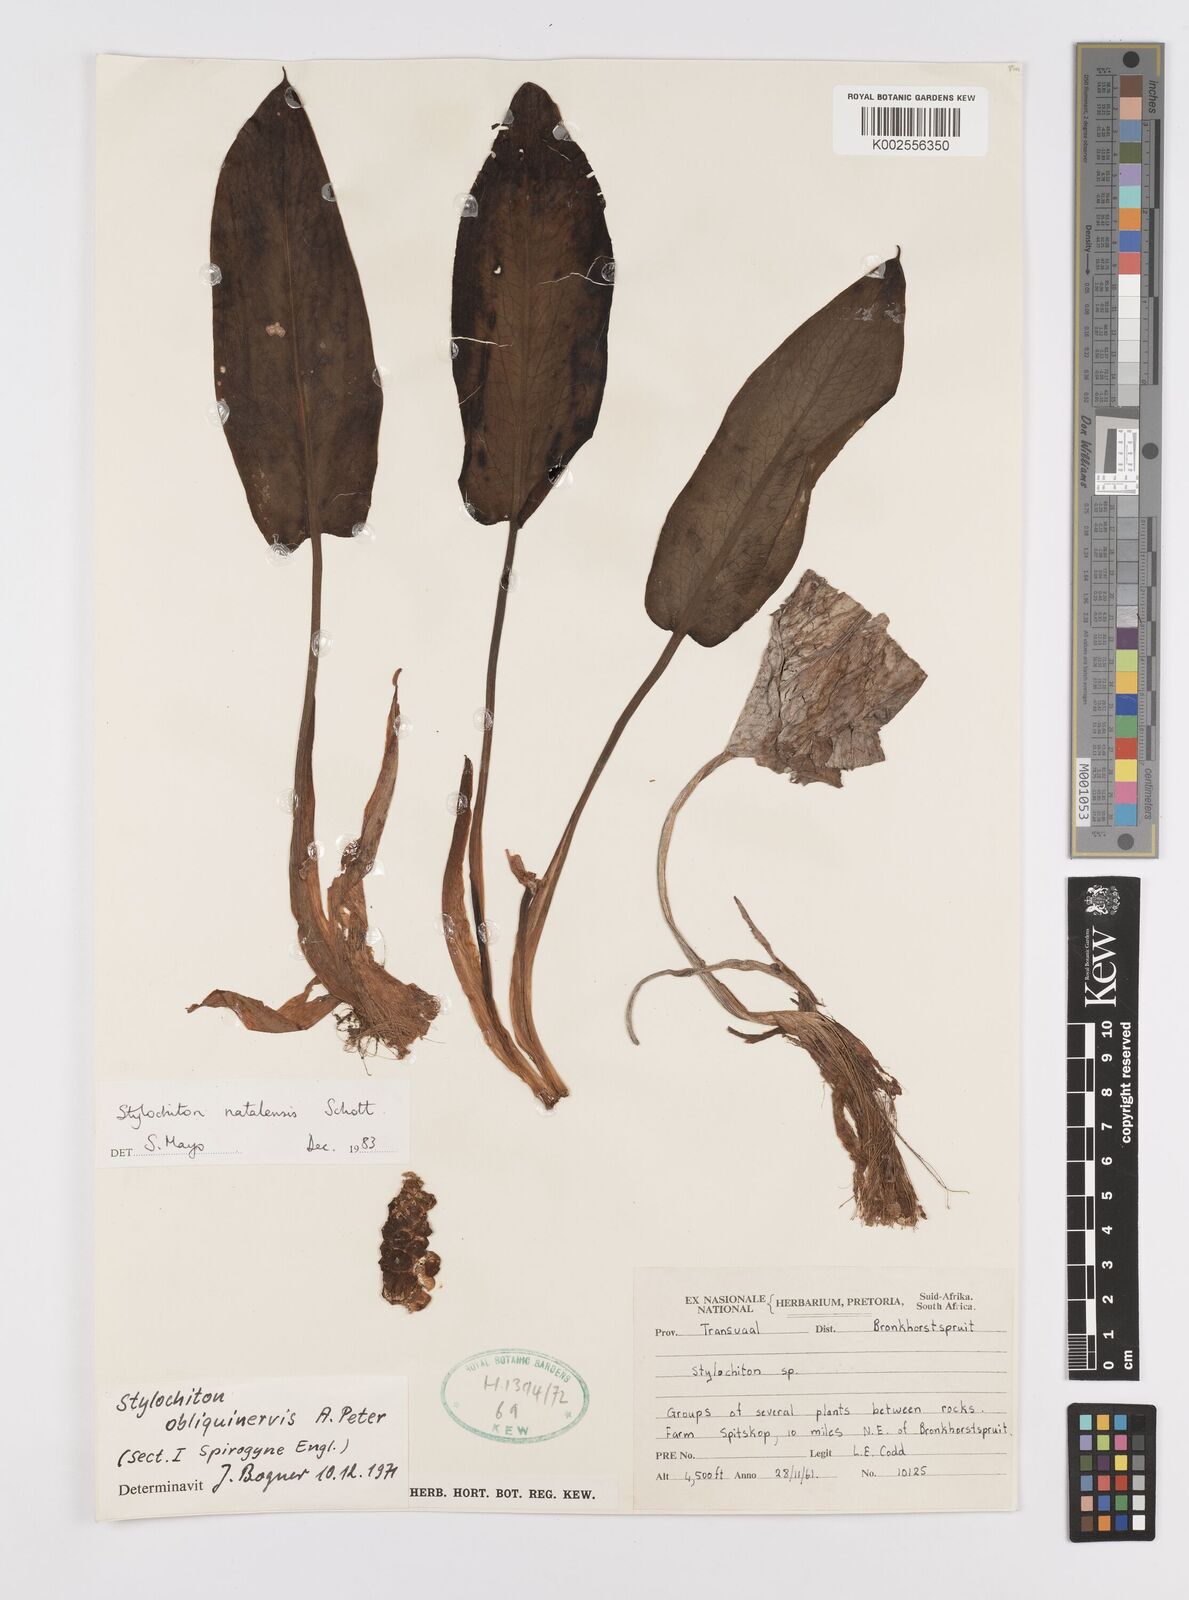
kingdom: Plantae
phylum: Tracheophyta
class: Liliopsida
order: Alismatales
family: Araceae
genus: Stylochaeton
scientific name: Stylochaeton natalense
